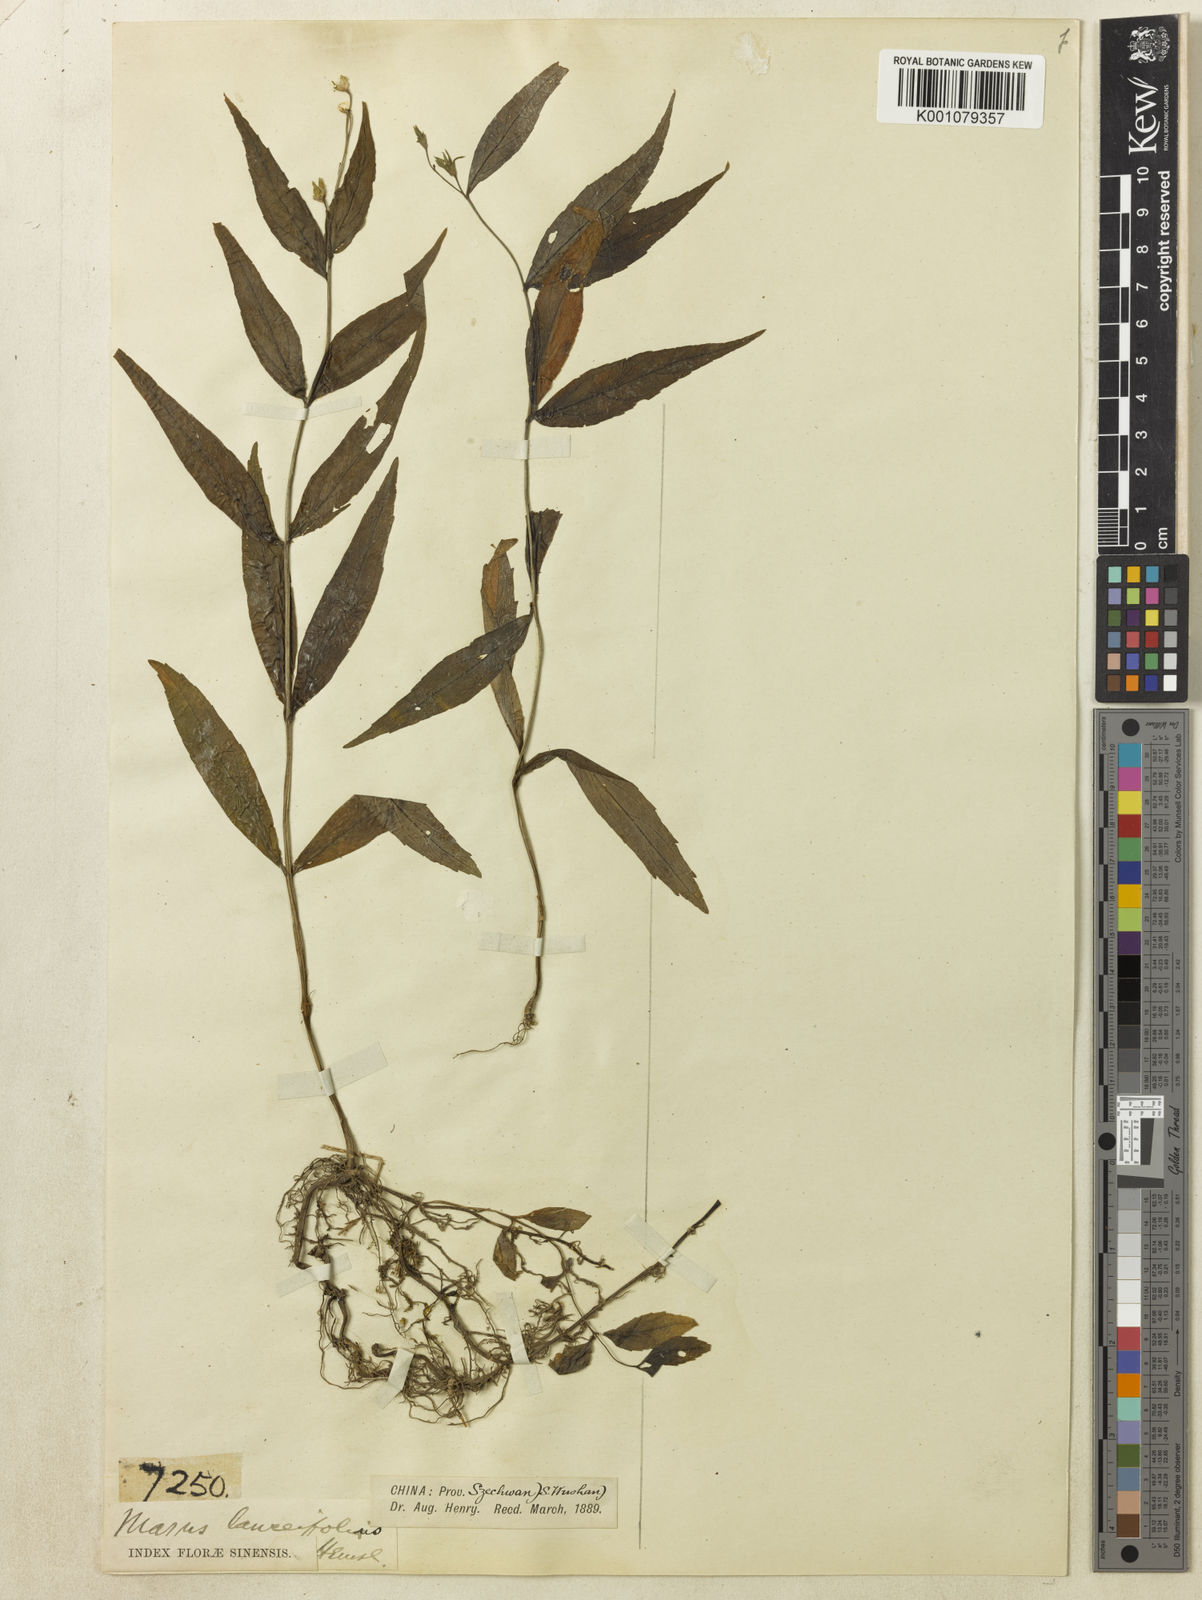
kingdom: Plantae
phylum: Tracheophyta
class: Magnoliopsida
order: Lamiales
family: Mazaceae
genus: Puchiumazus
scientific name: Puchiumazus lanceifolius
